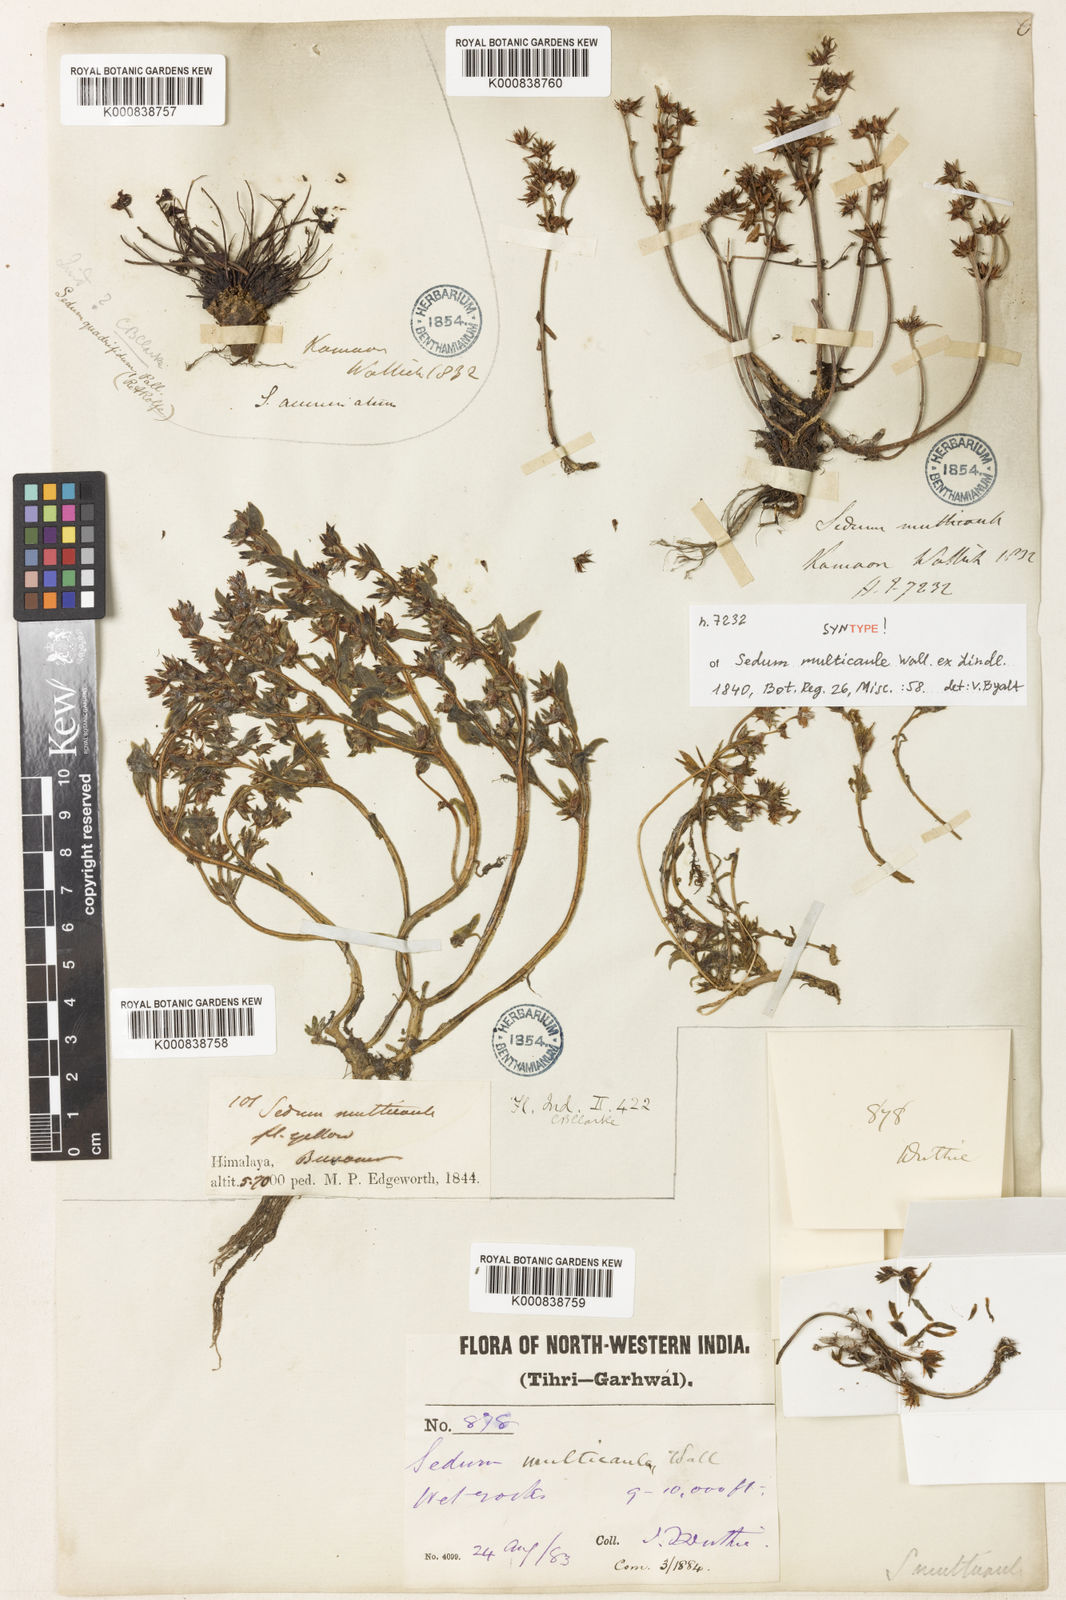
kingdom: Plantae
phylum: Tracheophyta
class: Magnoliopsida
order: Saxifragales
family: Crassulaceae
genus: Sedum
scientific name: Sedum
